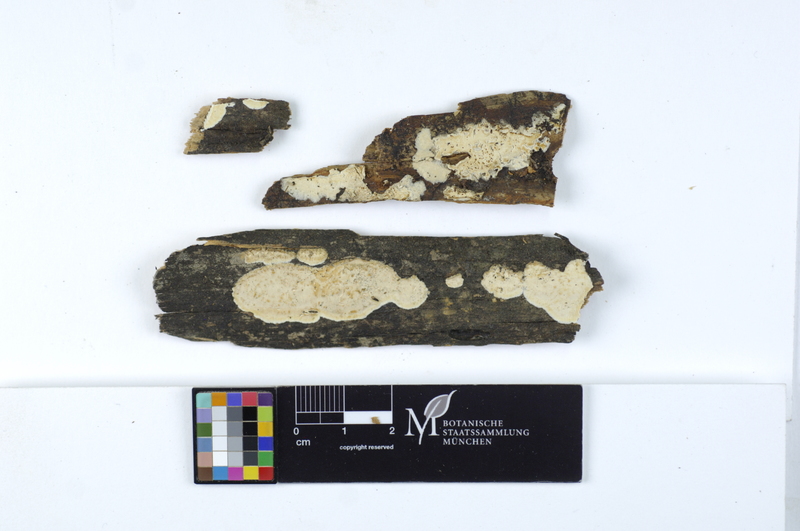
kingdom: Fungi
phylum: Basidiomycota
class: Agaricomycetes
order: Polyporales
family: Dacryobolaceae
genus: Dacryobolus
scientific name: Dacryobolus karstenii
